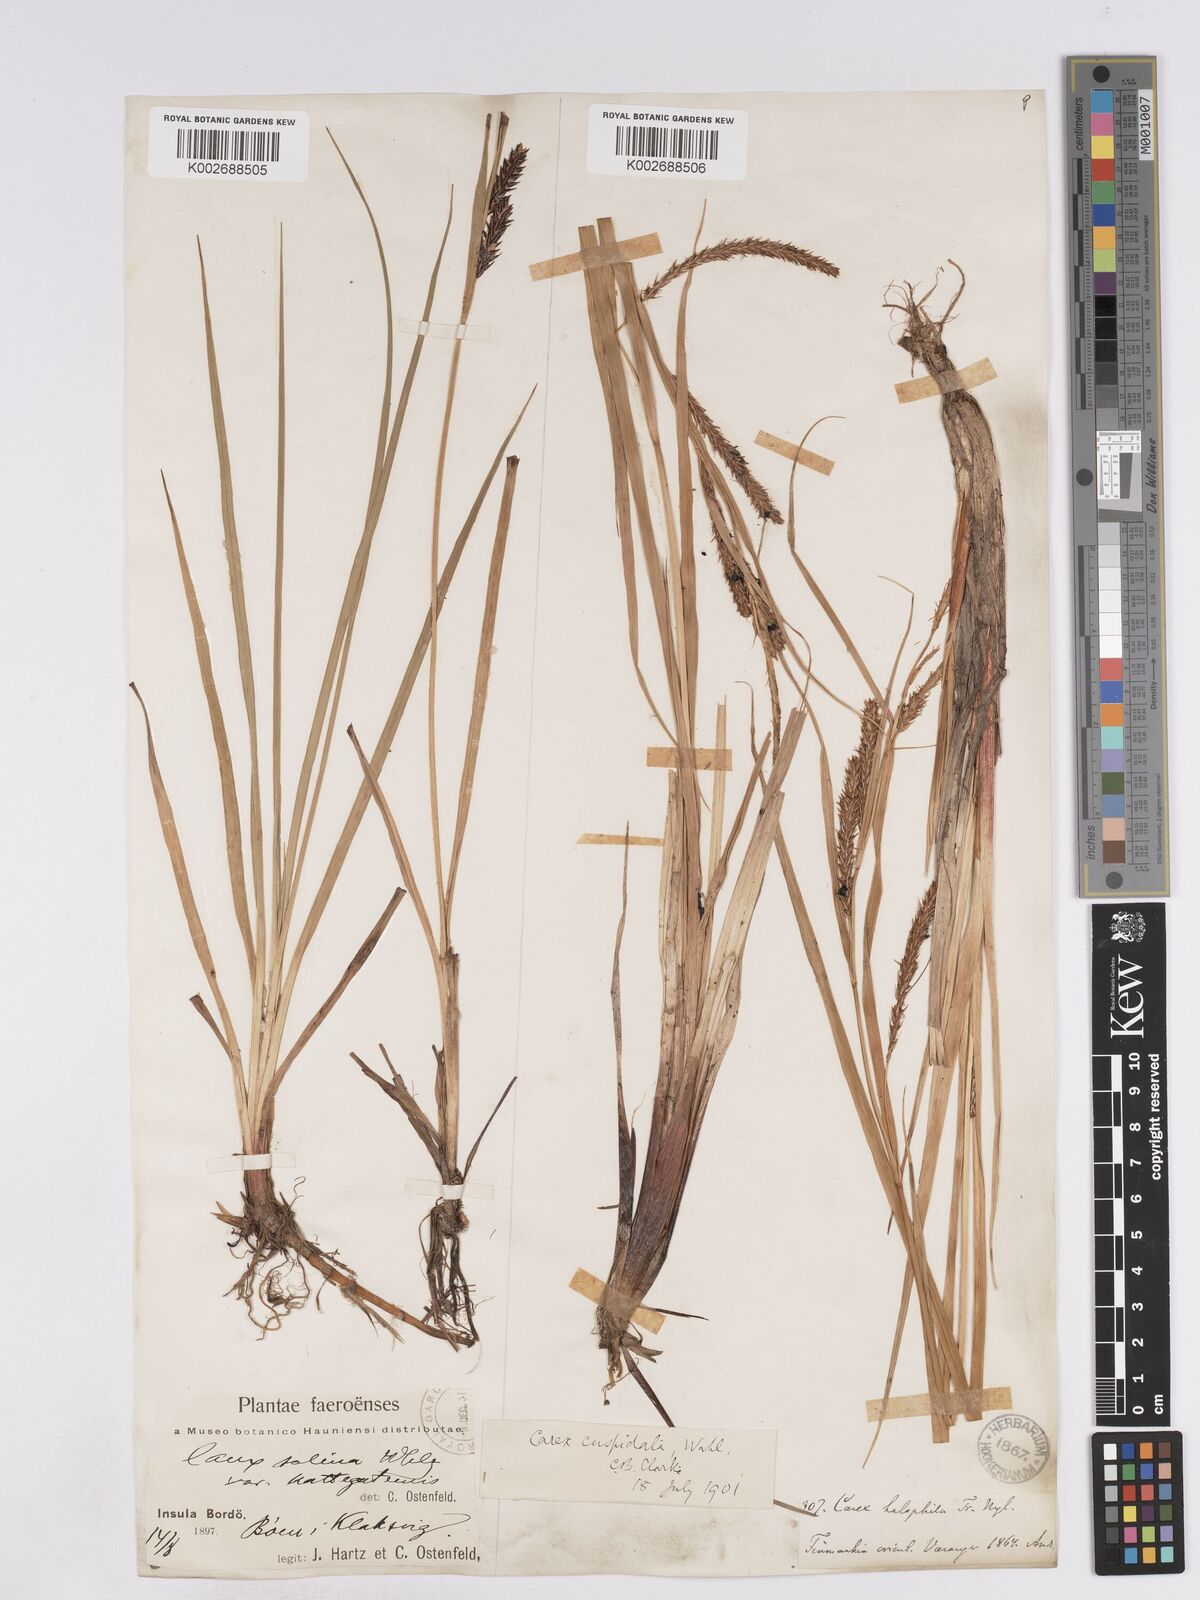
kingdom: Plantae
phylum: Tracheophyta
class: Liliopsida
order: Poales
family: Cyperaceae
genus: Carex
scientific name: Carex recta
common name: Estuarine sedge
